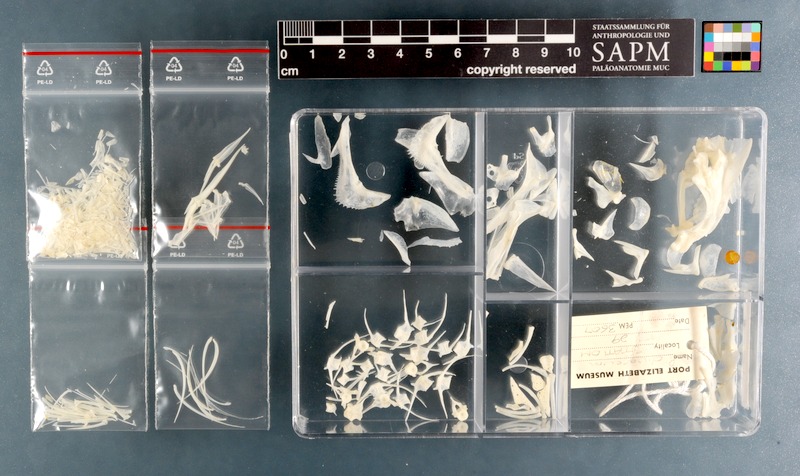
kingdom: Animalia
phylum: Chordata
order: Perciformes
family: Haemulidae
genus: Pomadasys
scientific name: Pomadasys olivaceus
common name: Olive grunt
